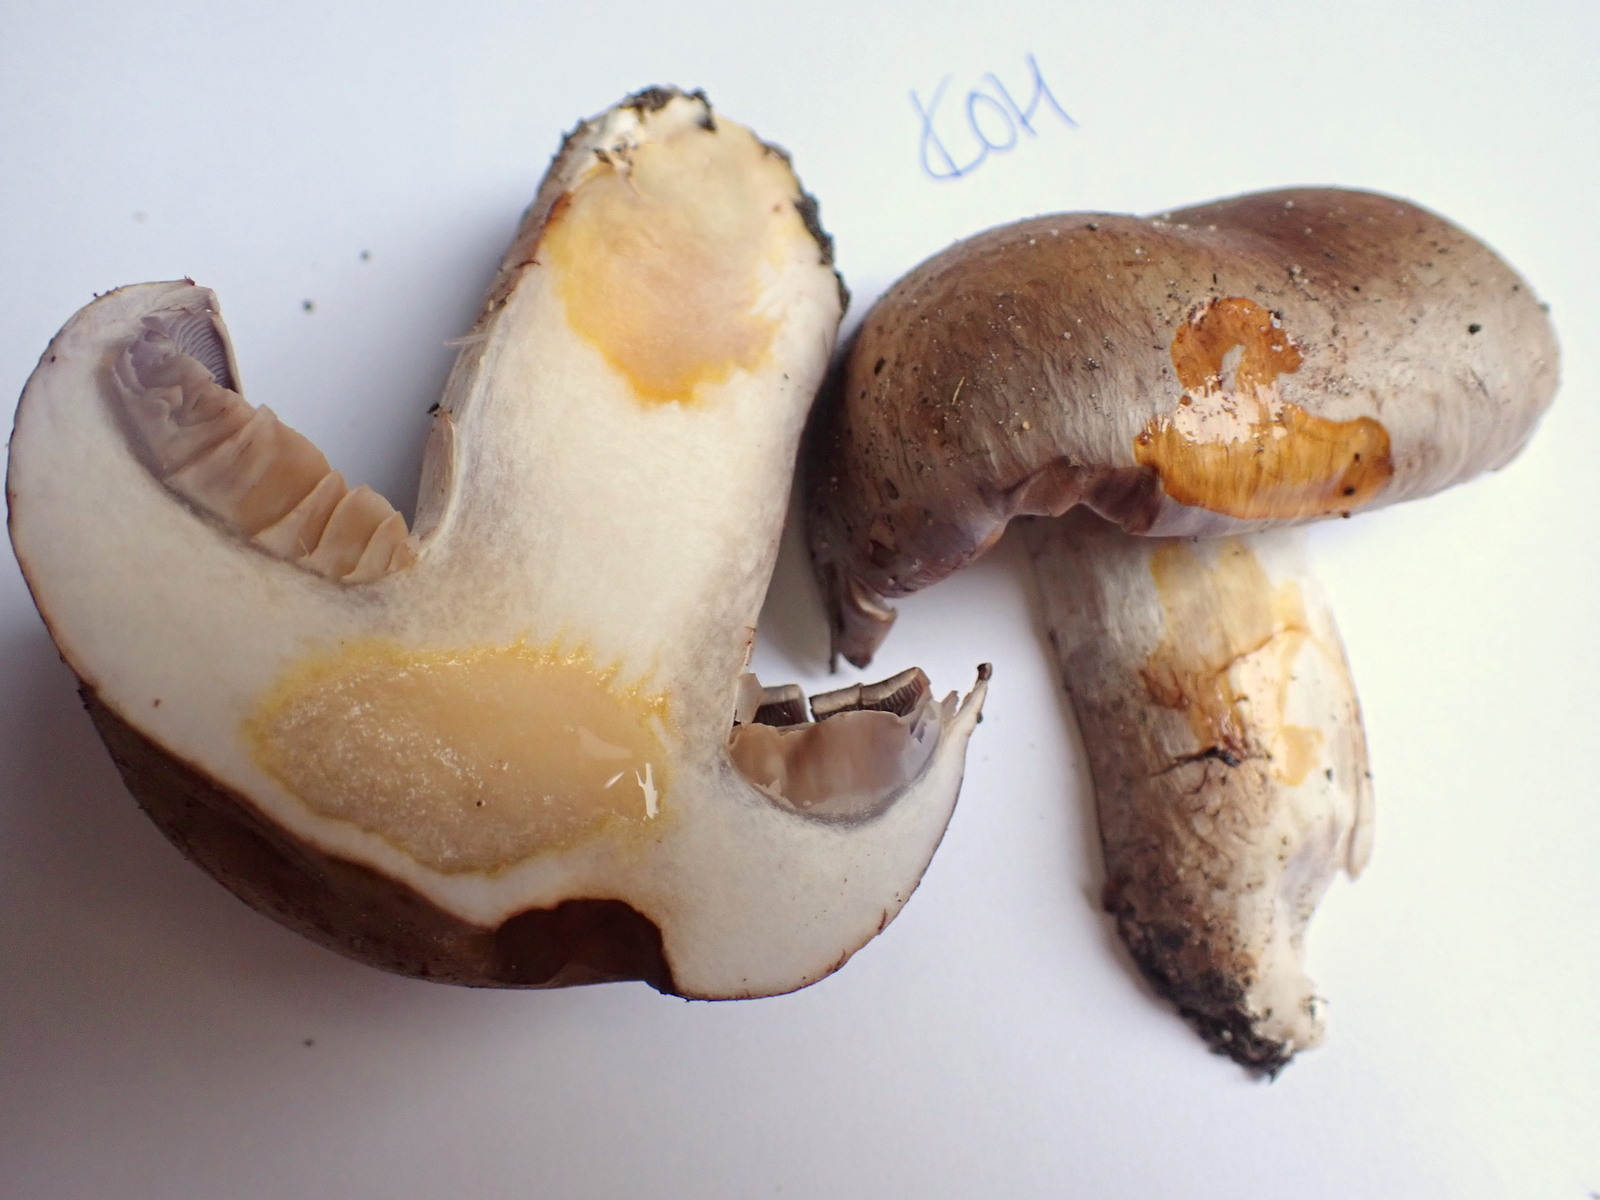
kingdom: Fungi
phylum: Basidiomycota
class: Agaricomycetes
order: Agaricales
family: Cortinariaceae
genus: Cortinarius
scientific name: Cortinarius largus
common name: violetrandet slørhat
